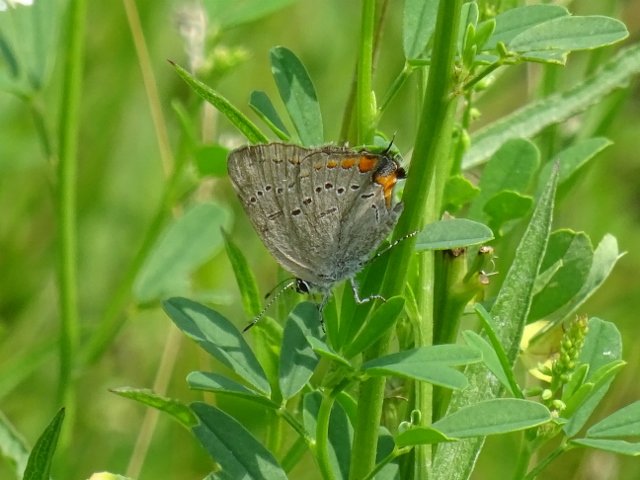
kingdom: Animalia
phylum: Arthropoda
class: Insecta
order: Lepidoptera
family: Lycaenidae
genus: Strymon
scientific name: Strymon acadica
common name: Acadian Hairstreak
